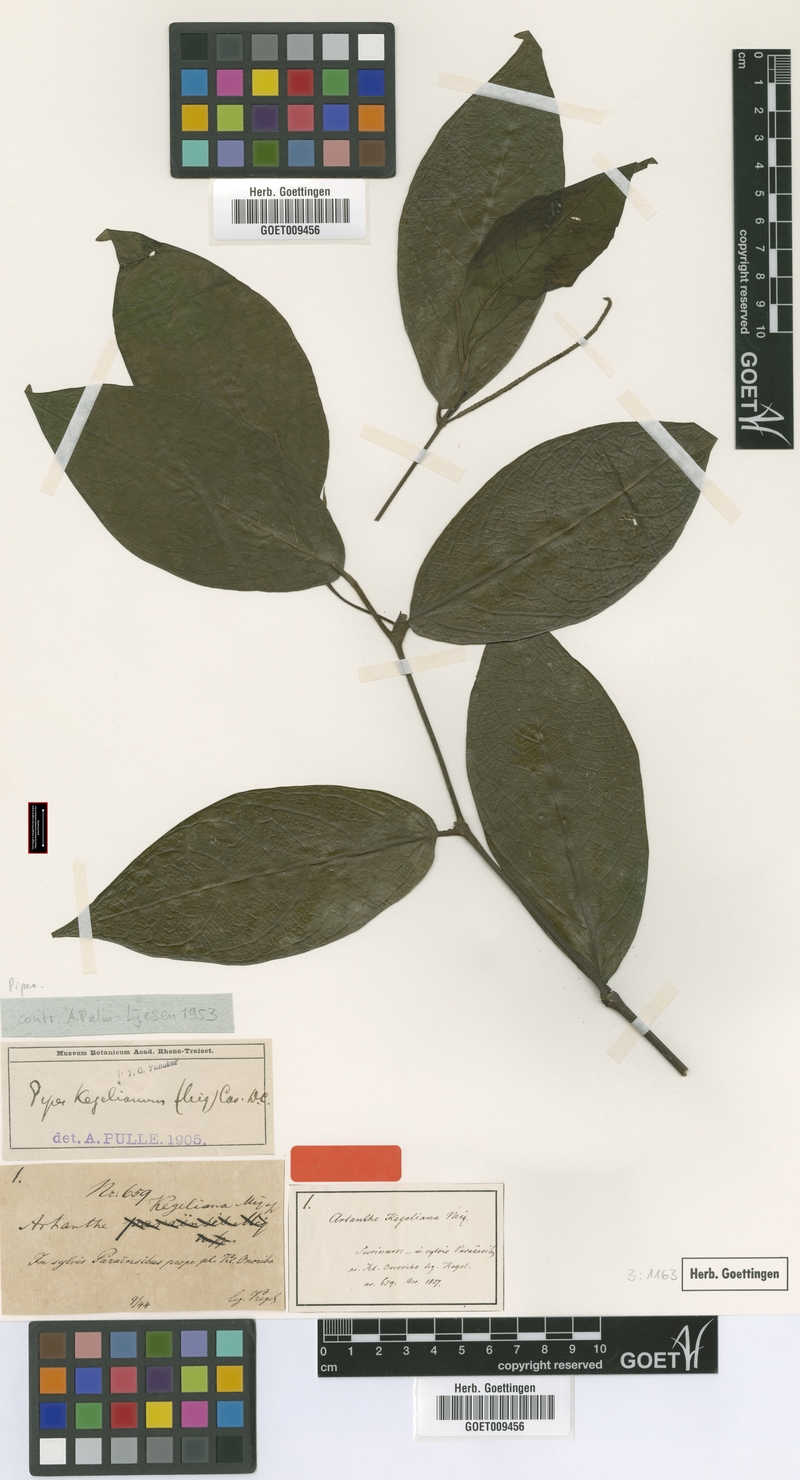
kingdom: Plantae
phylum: Tracheophyta
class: Magnoliopsida
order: Piperales
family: Piperaceae
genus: Piper
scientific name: Piper trichoneuron
